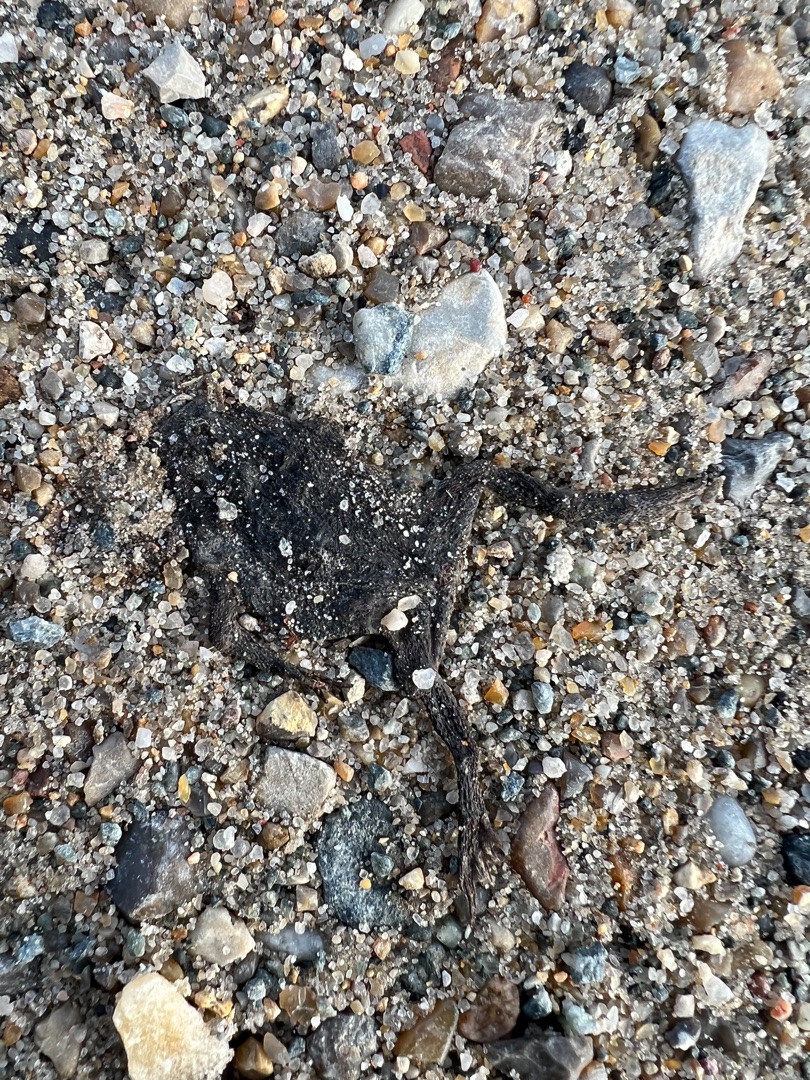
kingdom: Animalia
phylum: Chordata
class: Amphibia
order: Anura
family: Bufonidae
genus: Bufo
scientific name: Bufo bufo
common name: Skrubtudse
